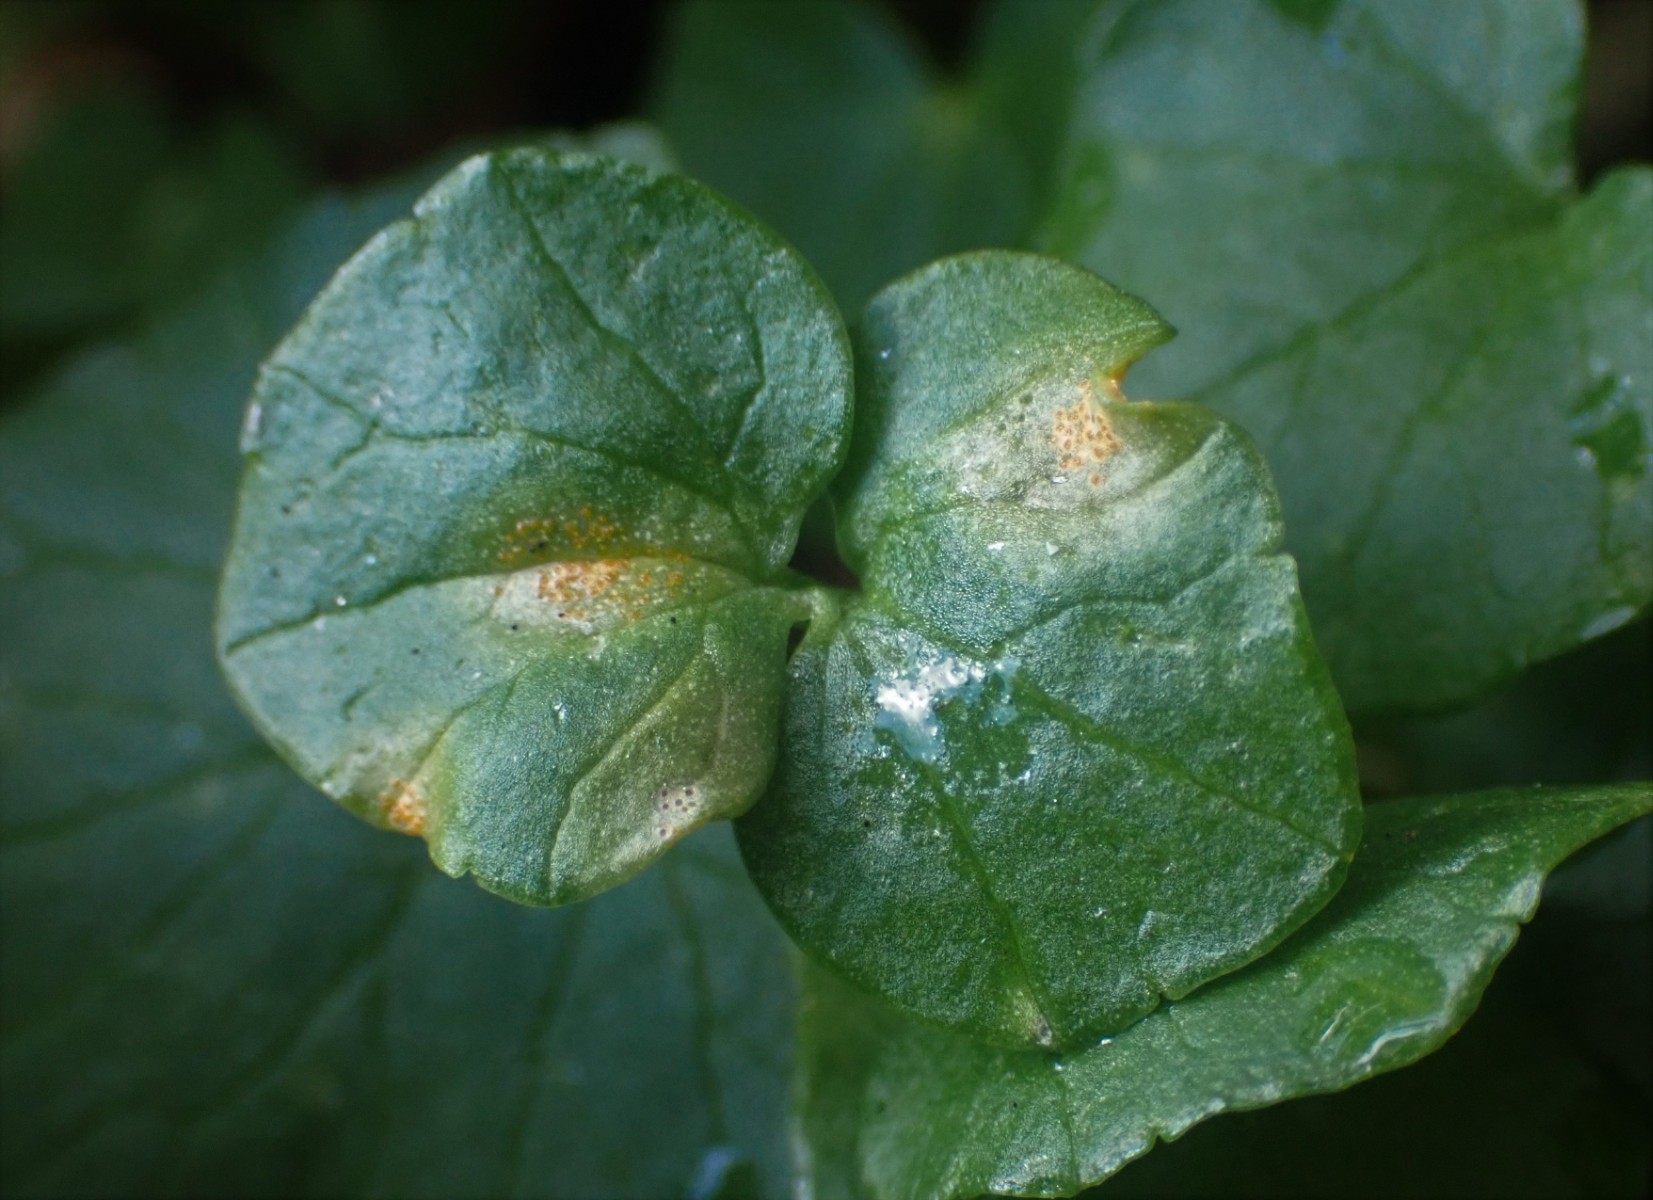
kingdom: Fungi
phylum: Basidiomycota
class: Pucciniomycetes
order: Pucciniales
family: Pucciniaceae
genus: Uromyces
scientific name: Uromyces dactylidis
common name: ranunkel-encellerust
